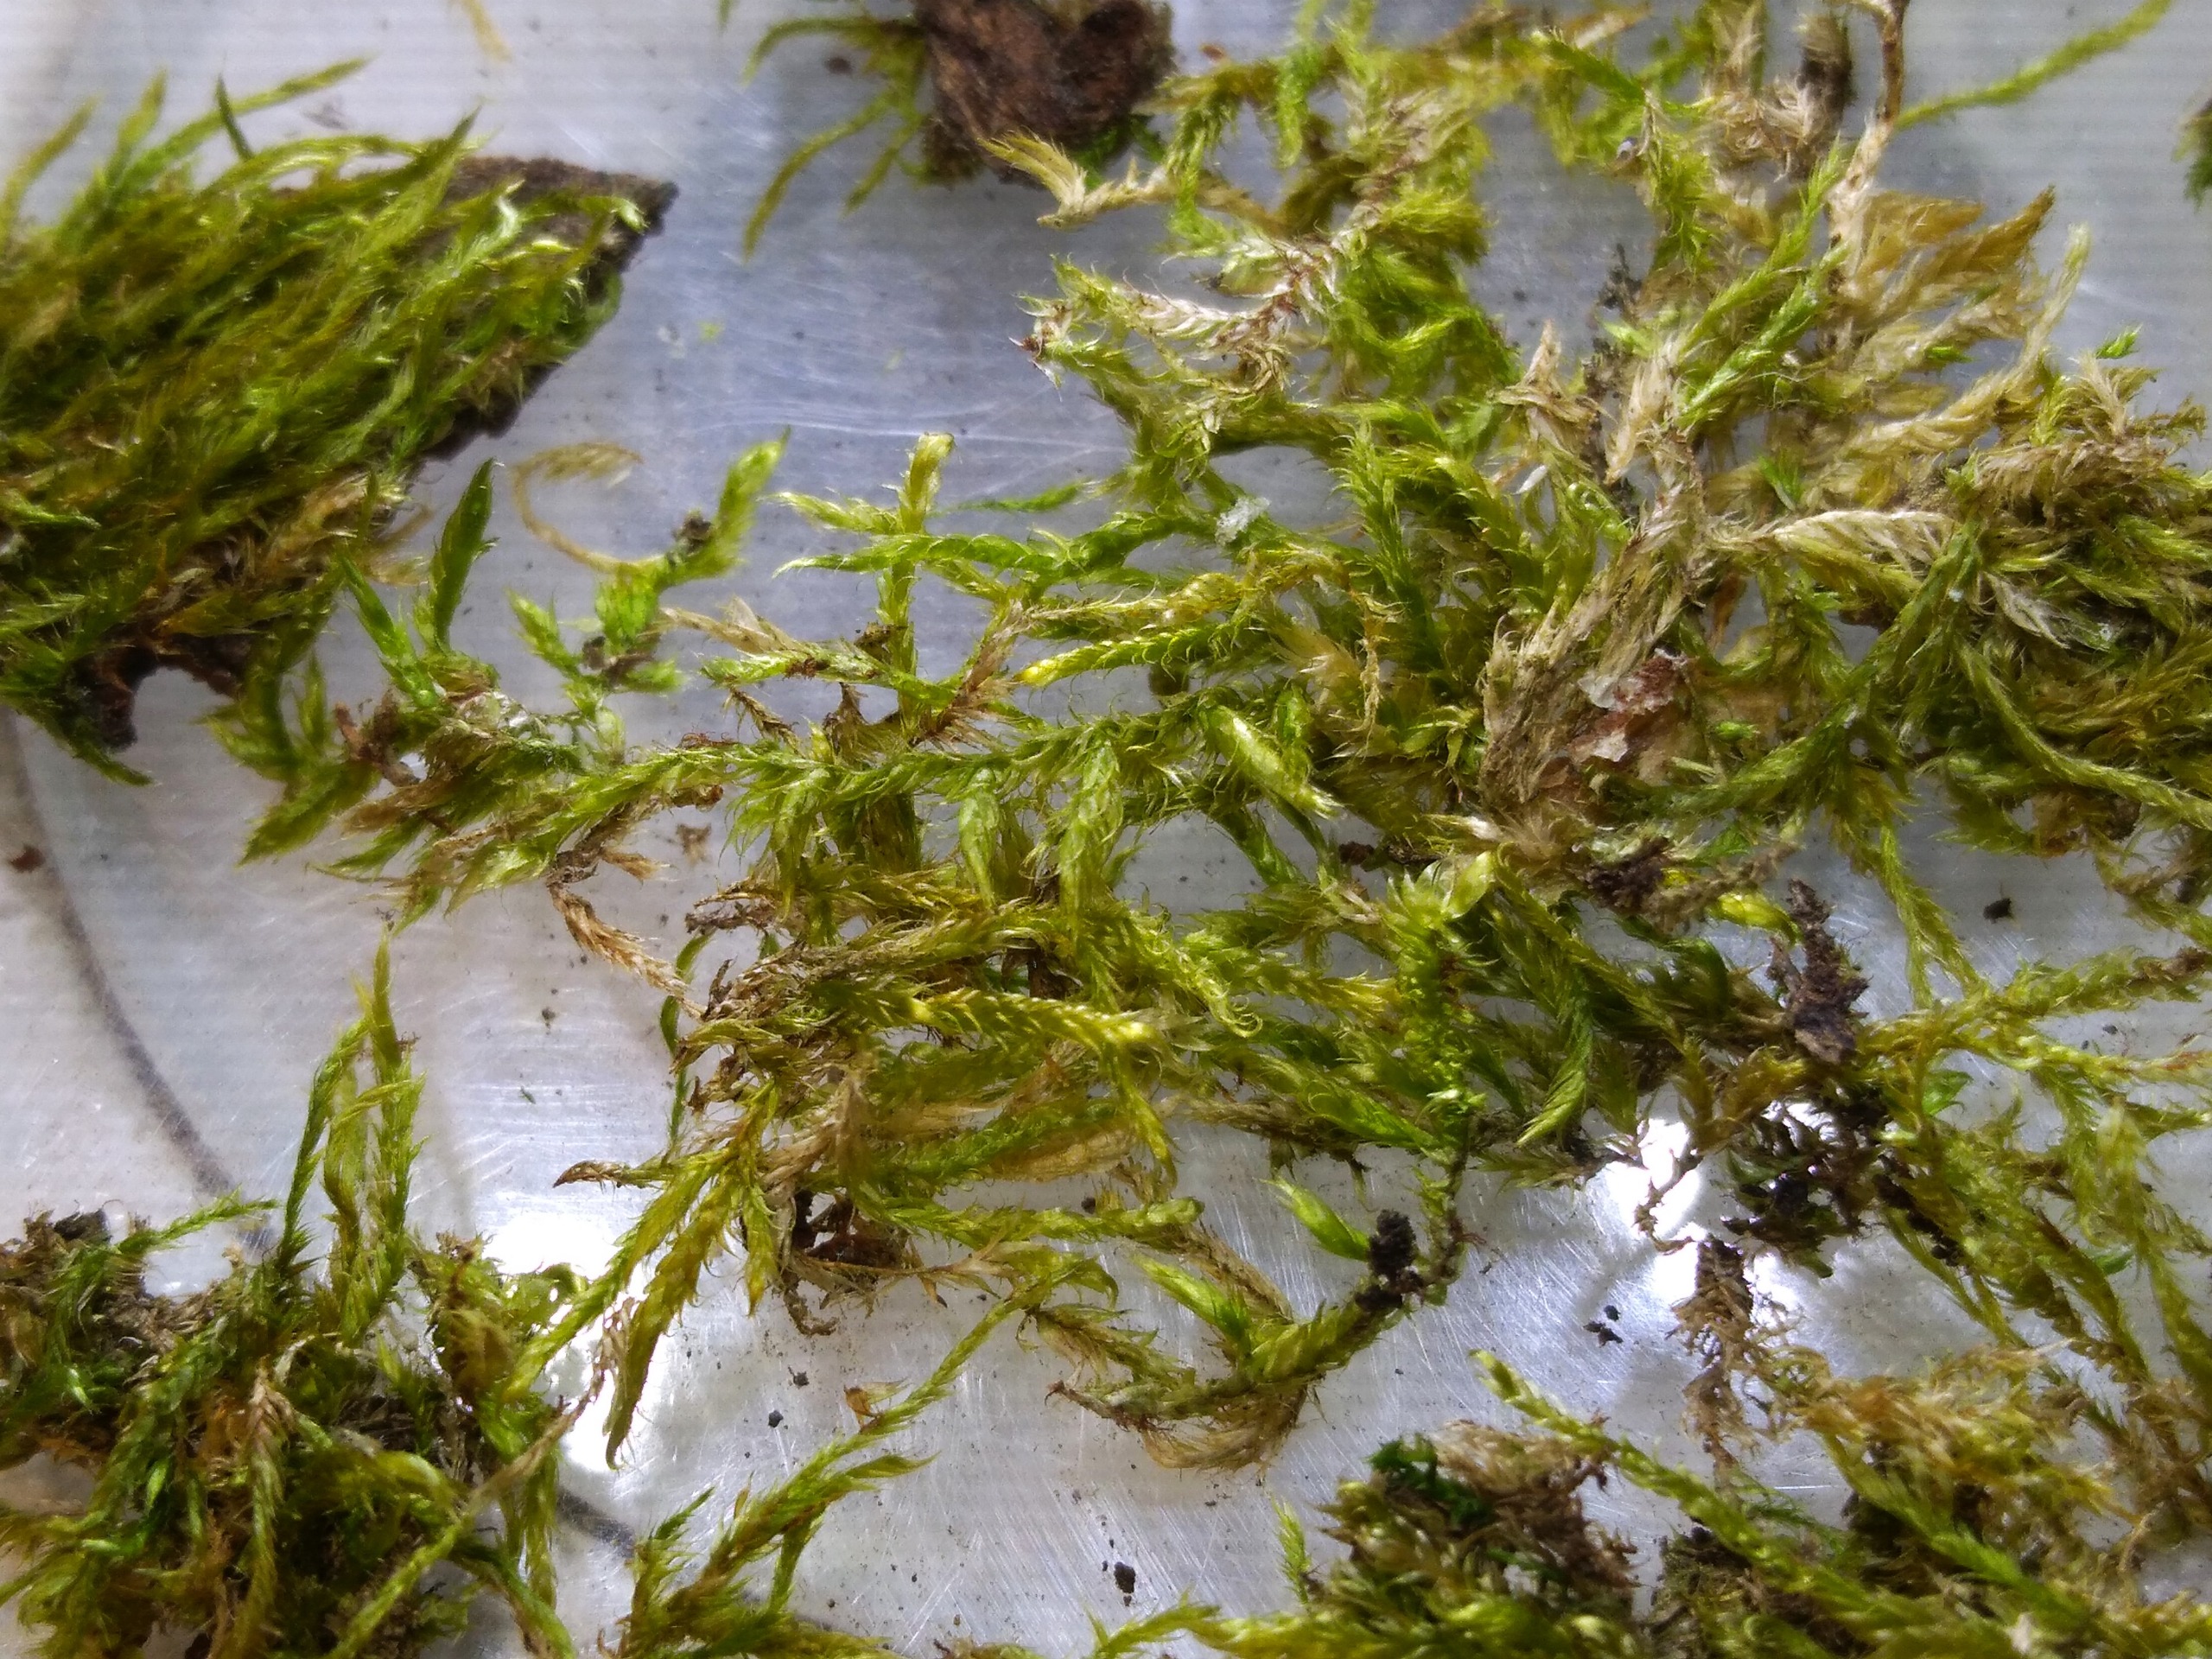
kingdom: Plantae
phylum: Bryophyta
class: Bryopsida
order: Hypnales
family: Hypnaceae
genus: Hypnum
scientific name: Hypnum
